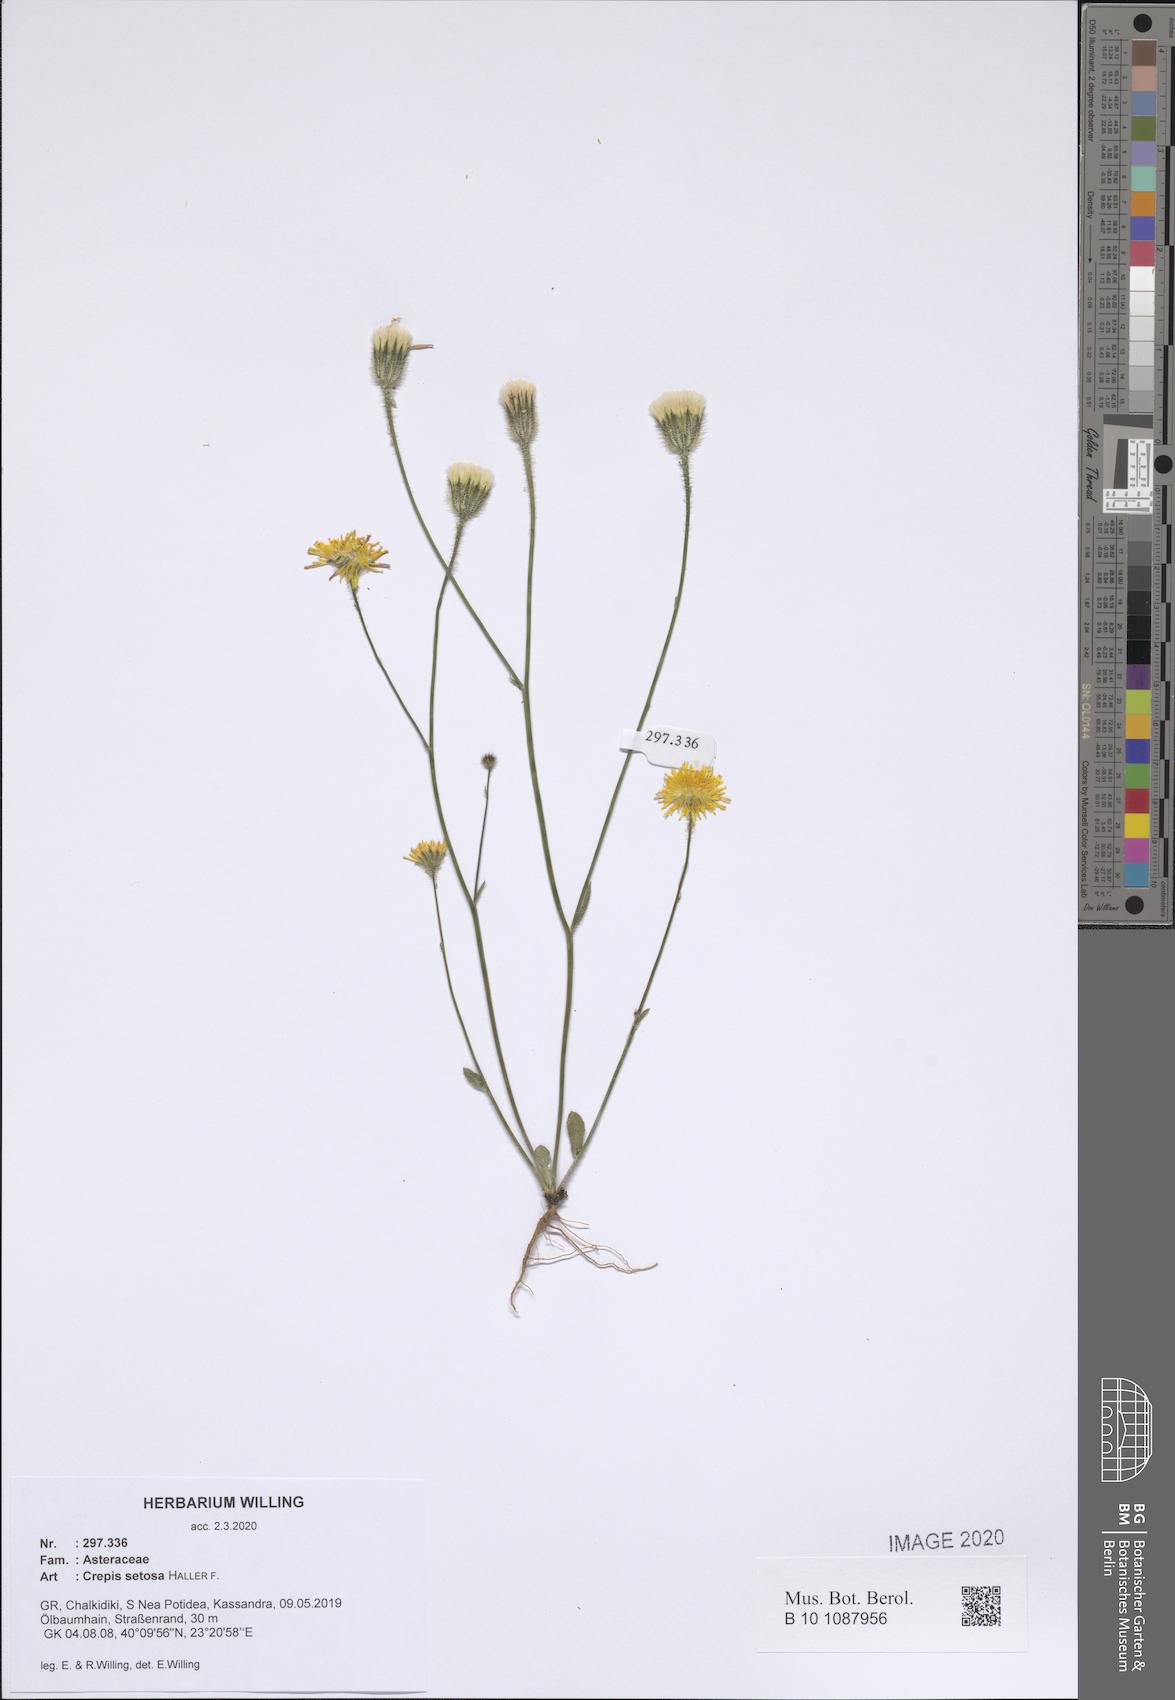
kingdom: Plantae
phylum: Tracheophyta
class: Magnoliopsida
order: Asterales
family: Asteraceae
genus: Crepis
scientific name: Crepis setosa
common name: Bristly hawk's-beard
